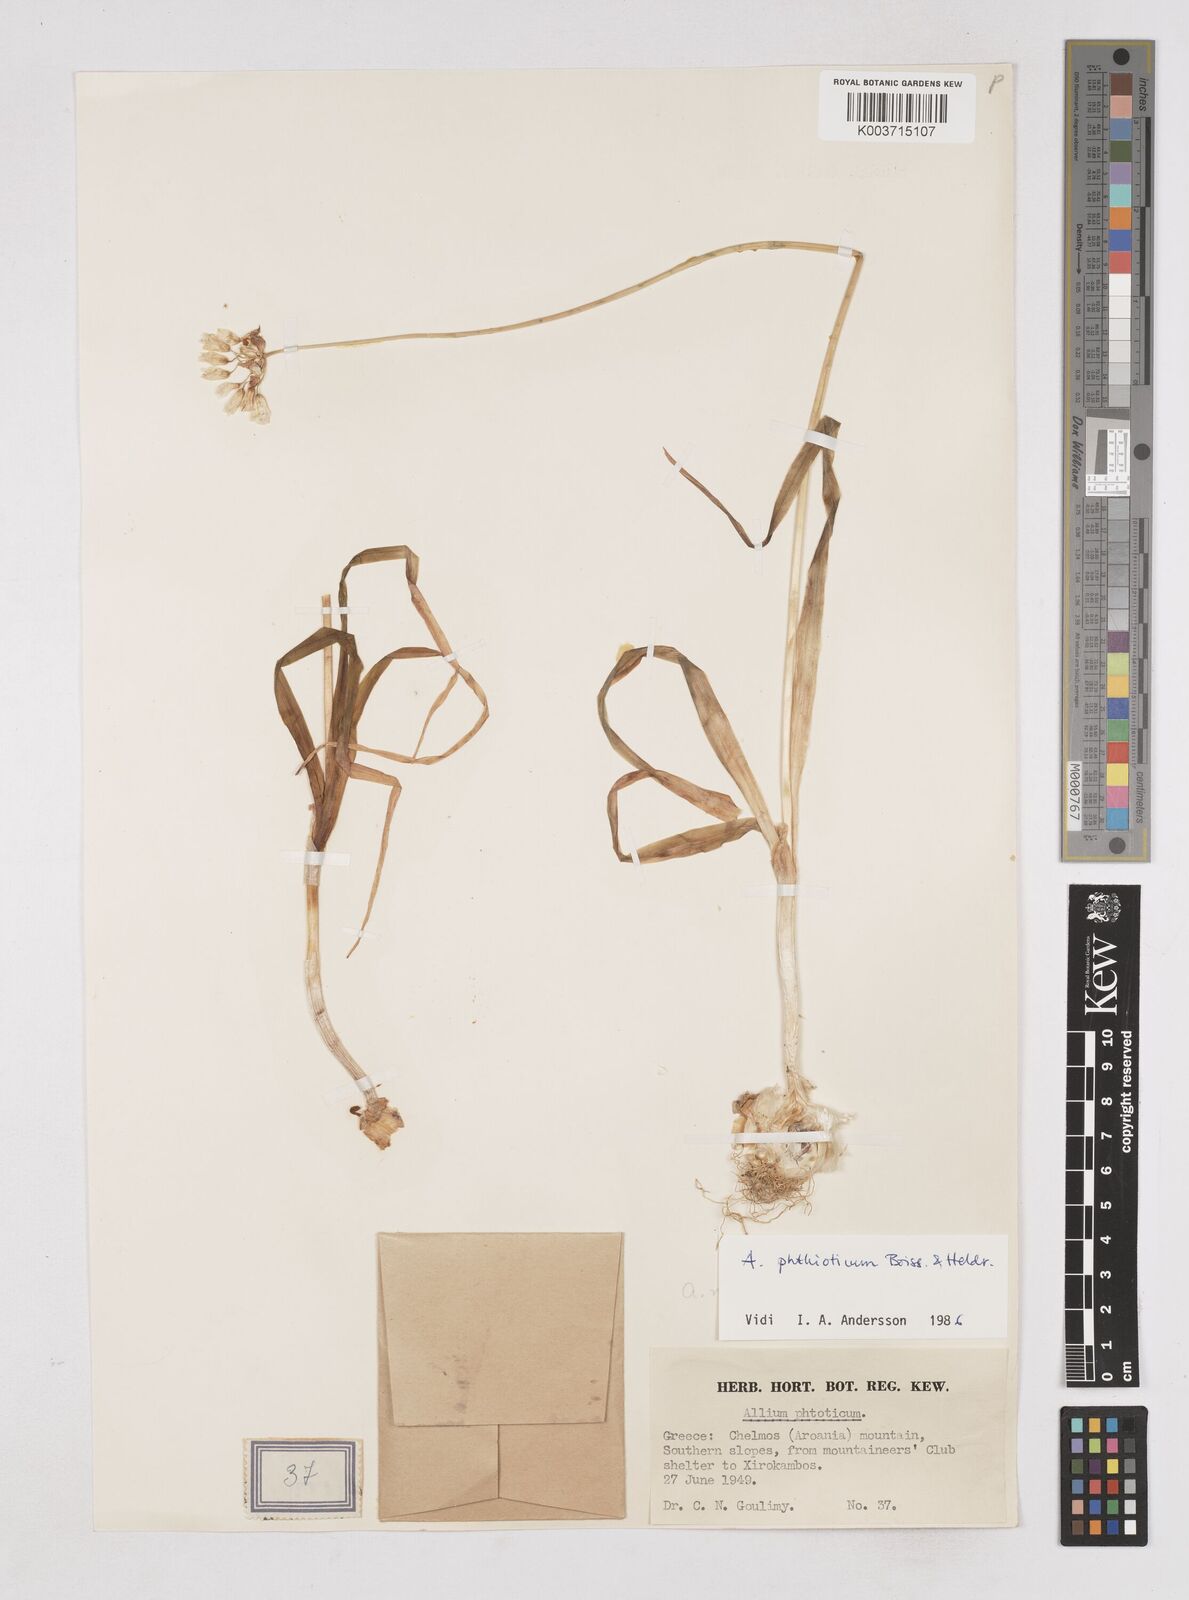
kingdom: Plantae
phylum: Tracheophyta
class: Liliopsida
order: Asparagales
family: Amaryllidaceae
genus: Allium
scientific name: Allium phthioticum
